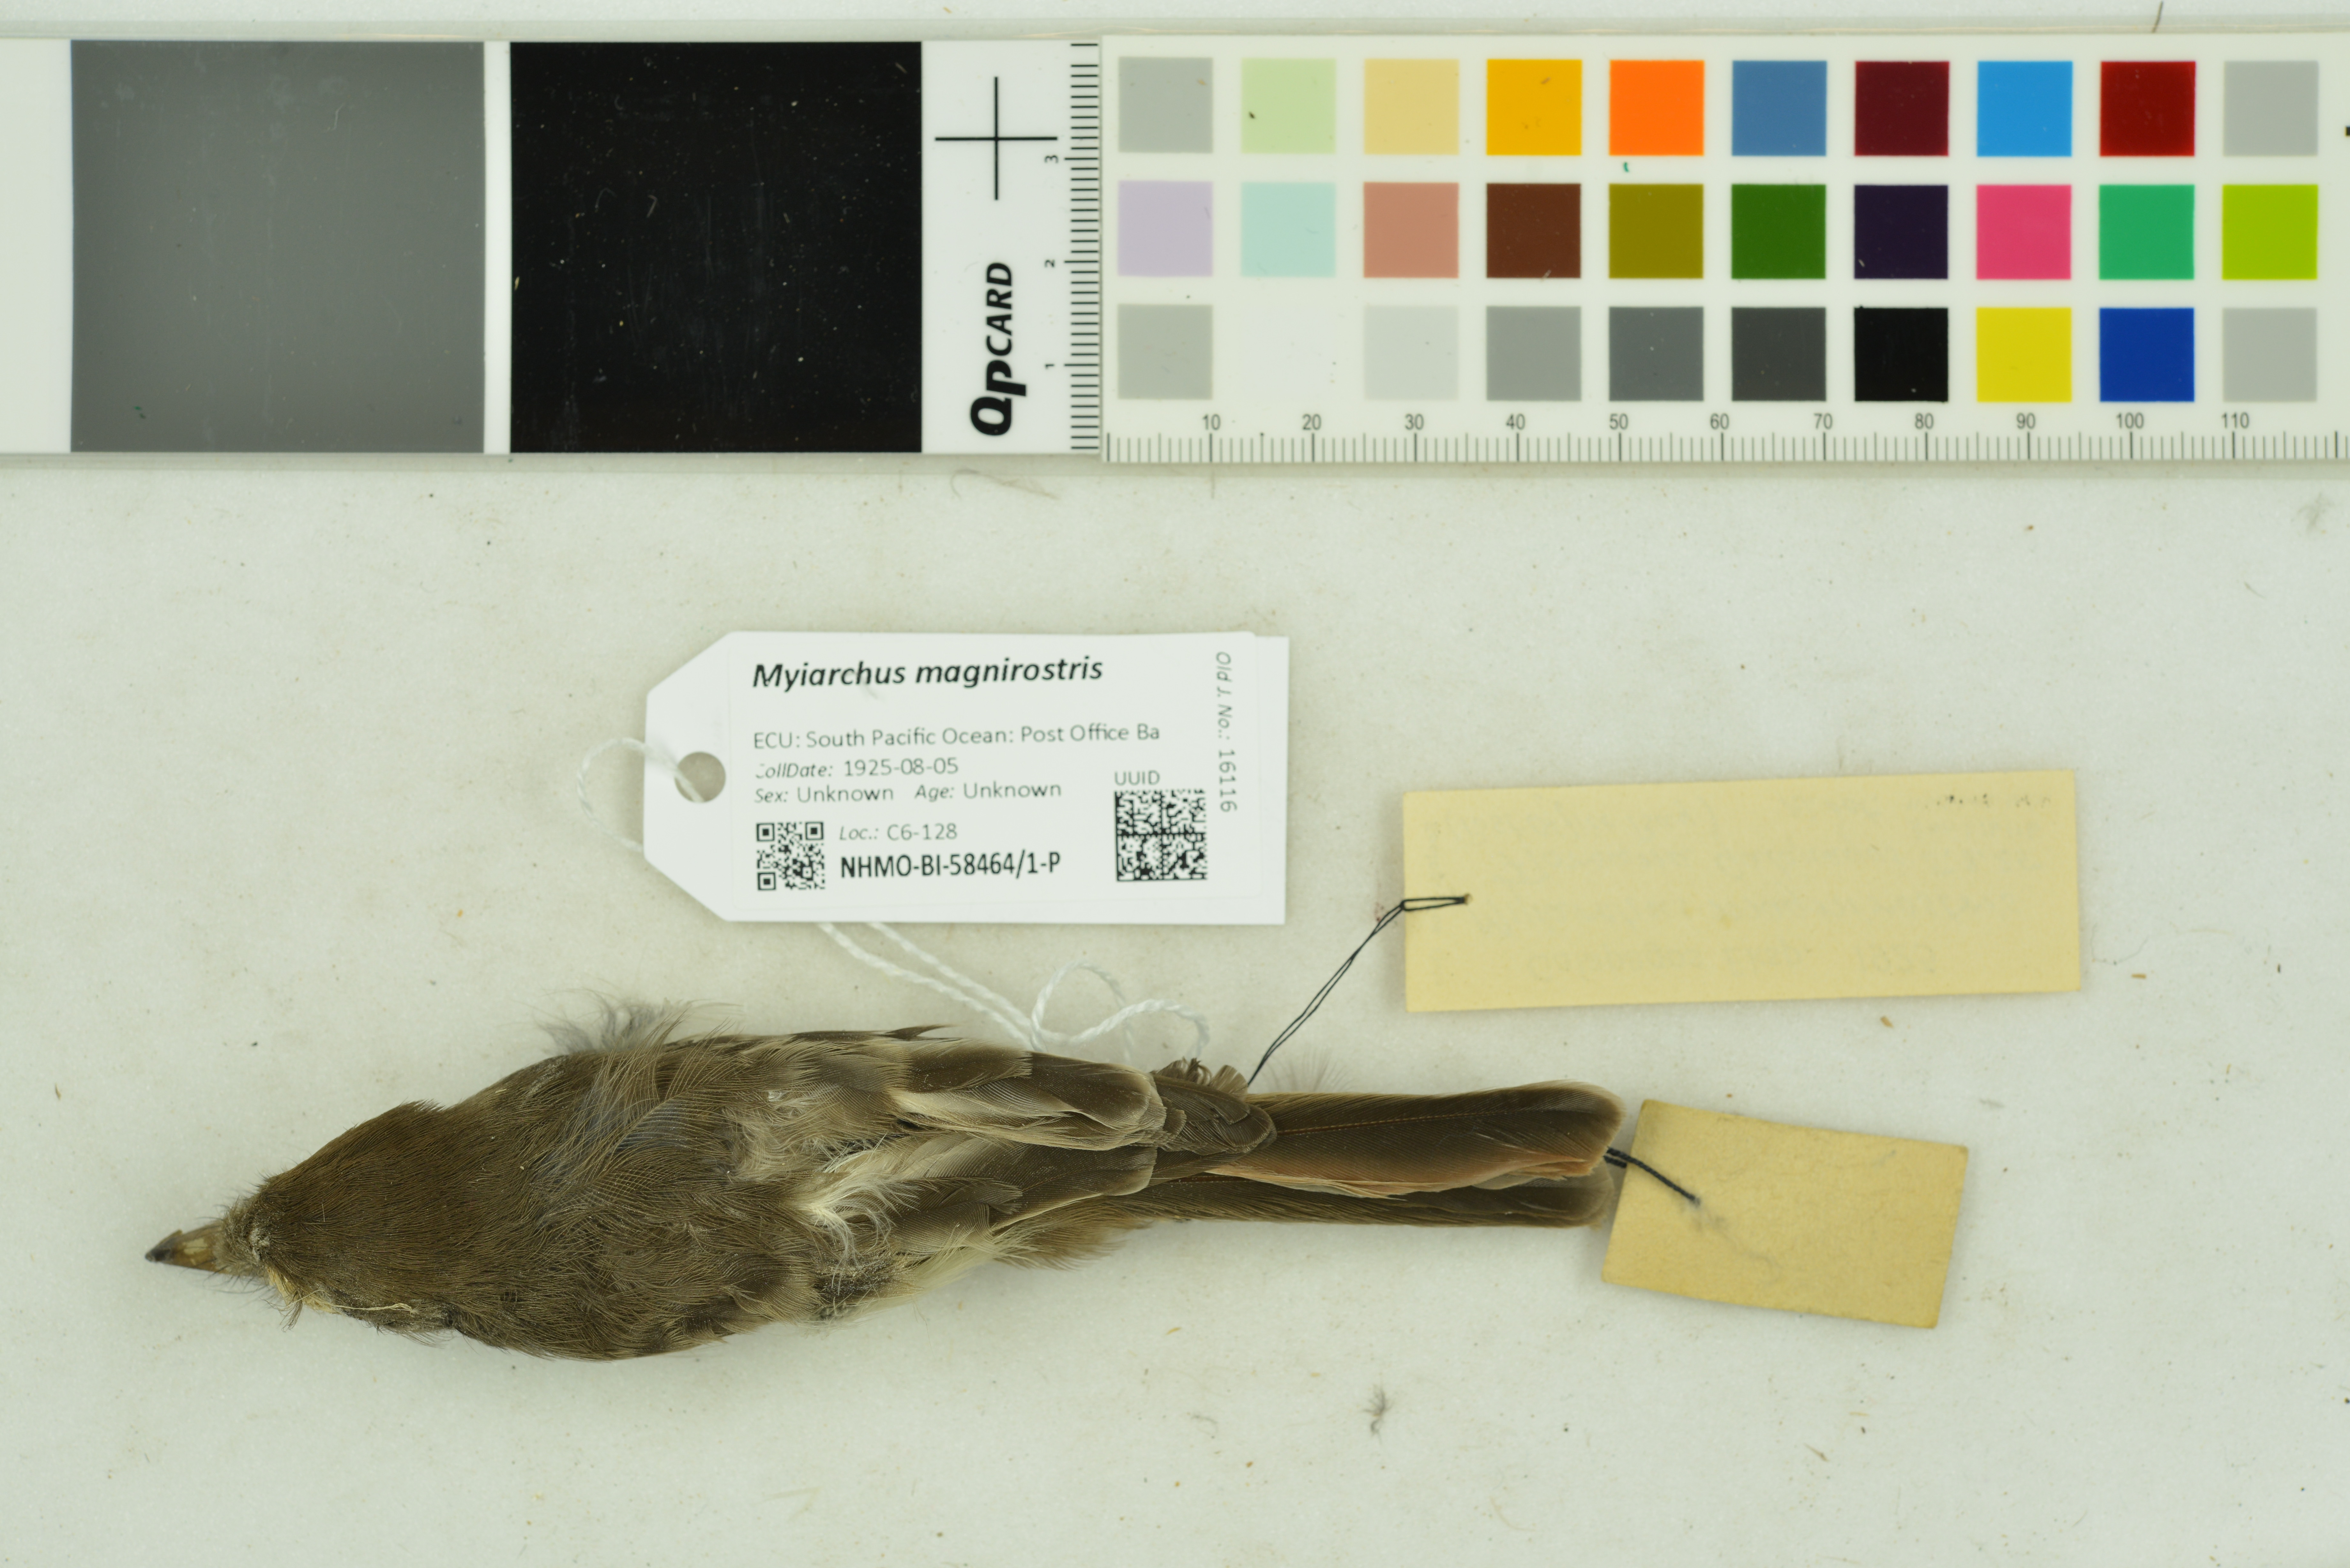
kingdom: Animalia
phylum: Chordata
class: Aves
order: Passeriformes
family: Tyrannidae
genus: Myiarchus
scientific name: Myiarchus magnirostris
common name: Galapagos flycatcher
